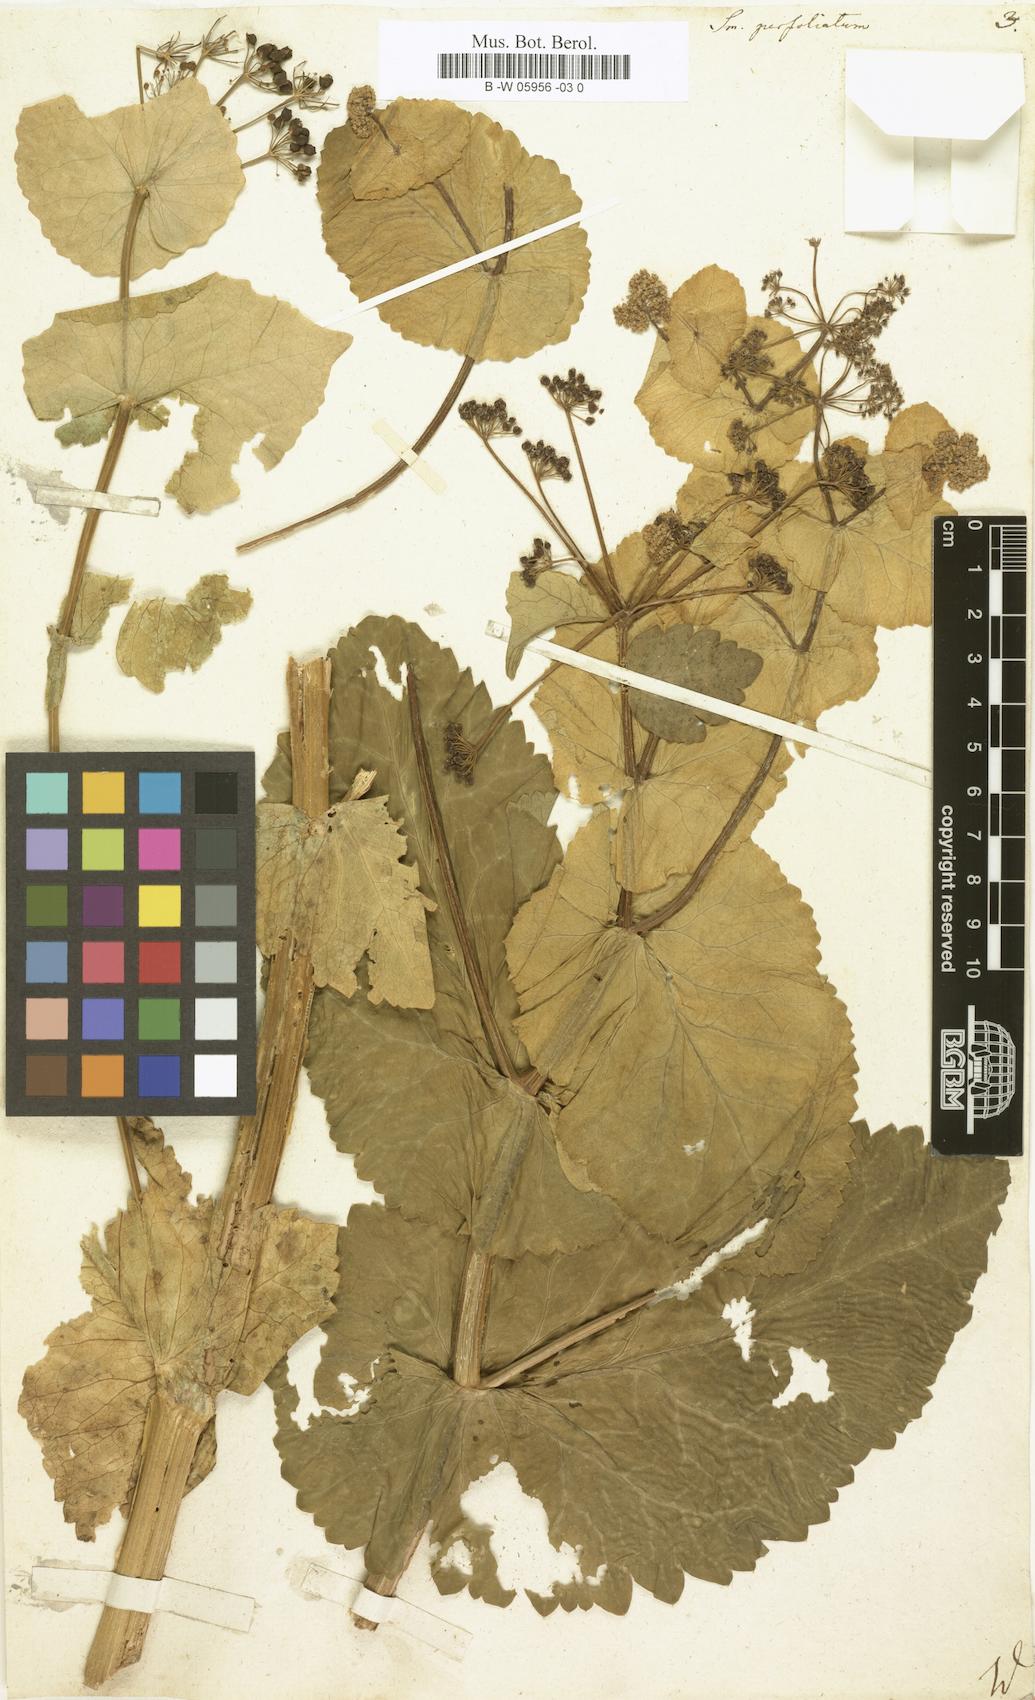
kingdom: Plantae
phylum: Tracheophyta
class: Magnoliopsida
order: Apiales
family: Apiaceae
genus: Smyrnium
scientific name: Smyrnium perfoliatum
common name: Perfoliate alexanders
